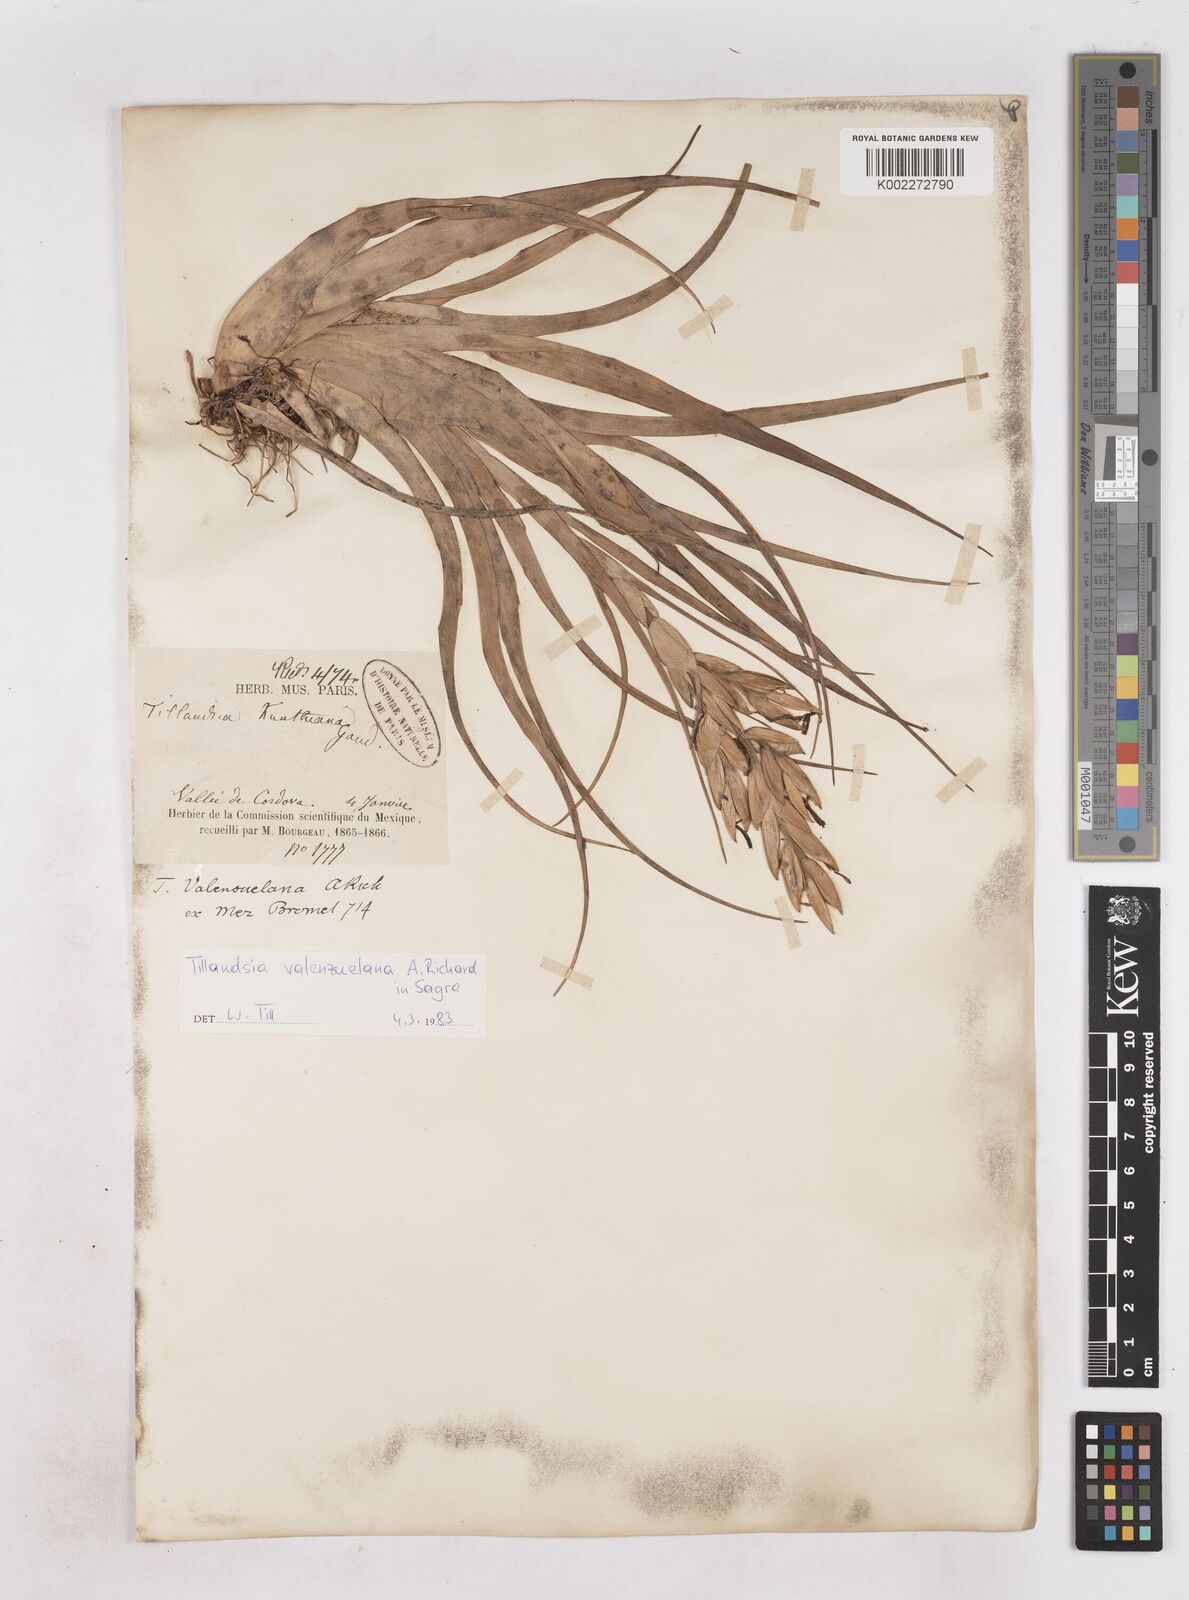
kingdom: Plantae
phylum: Tracheophyta
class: Liliopsida
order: Poales
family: Bromeliaceae
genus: Tillandsia
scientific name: Tillandsia variabilis
